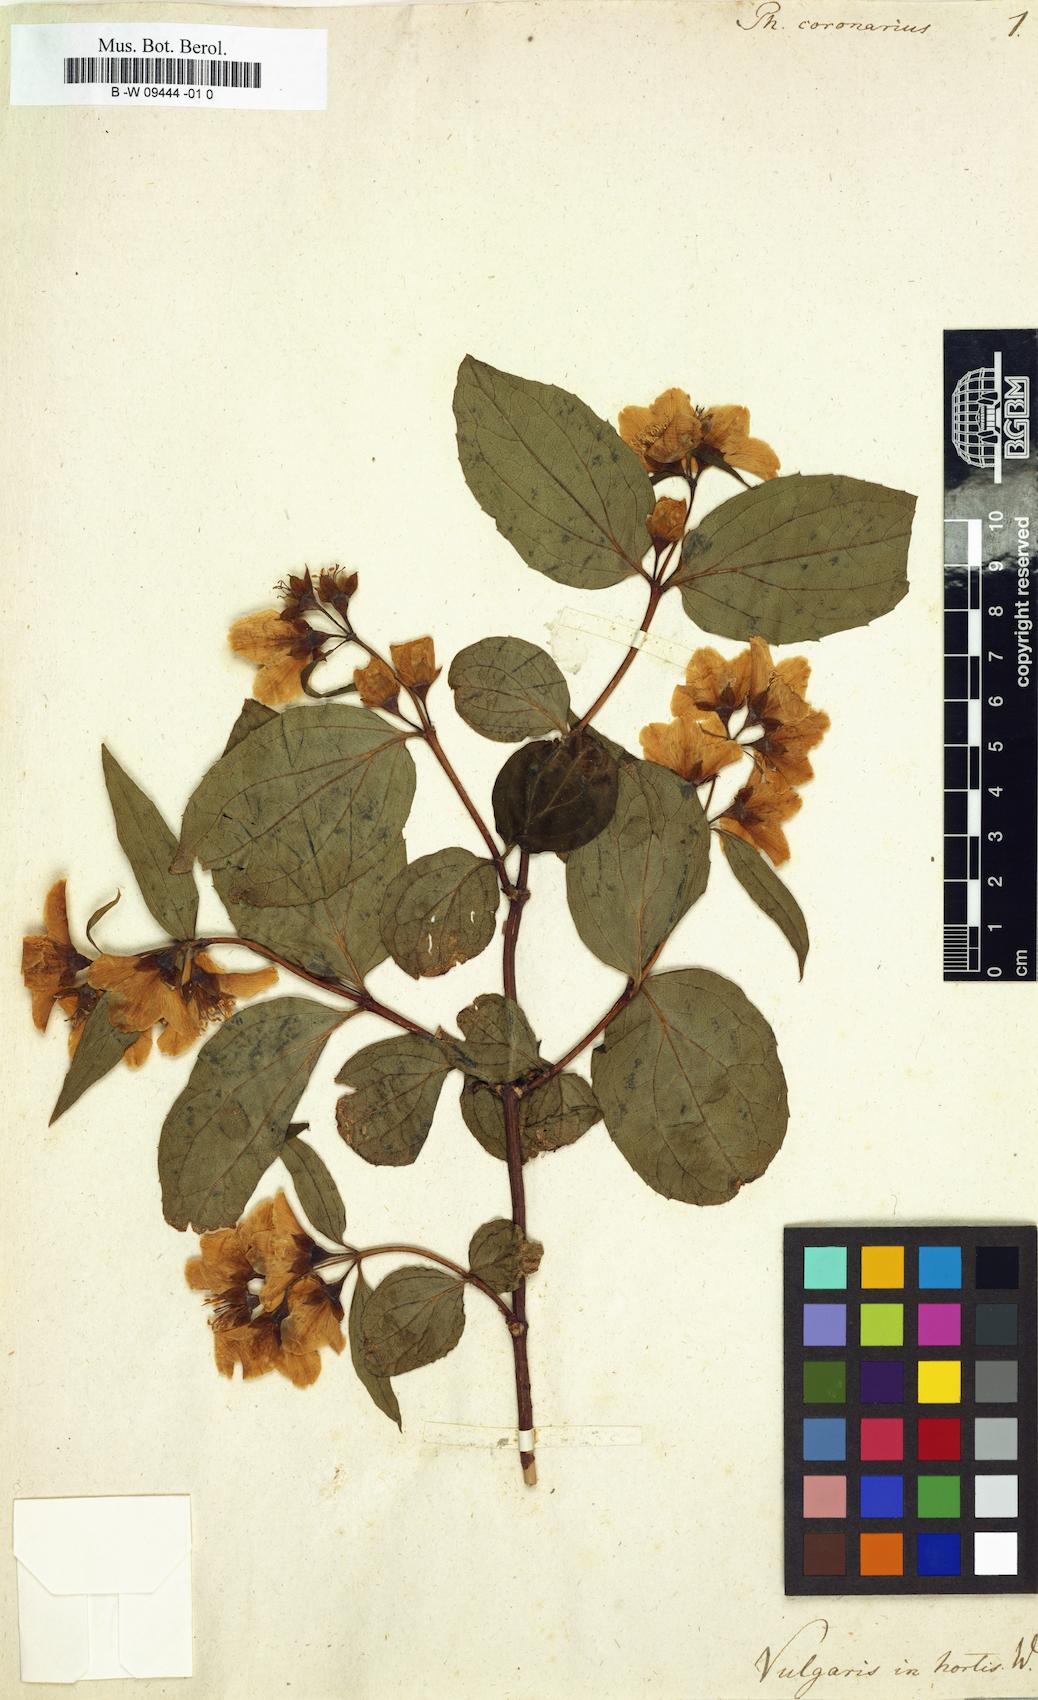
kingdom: Plantae
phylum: Tracheophyta
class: Magnoliopsida
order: Cornales
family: Hydrangeaceae
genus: Philadelphus
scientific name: Philadelphus coronarius
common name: Mock orange
